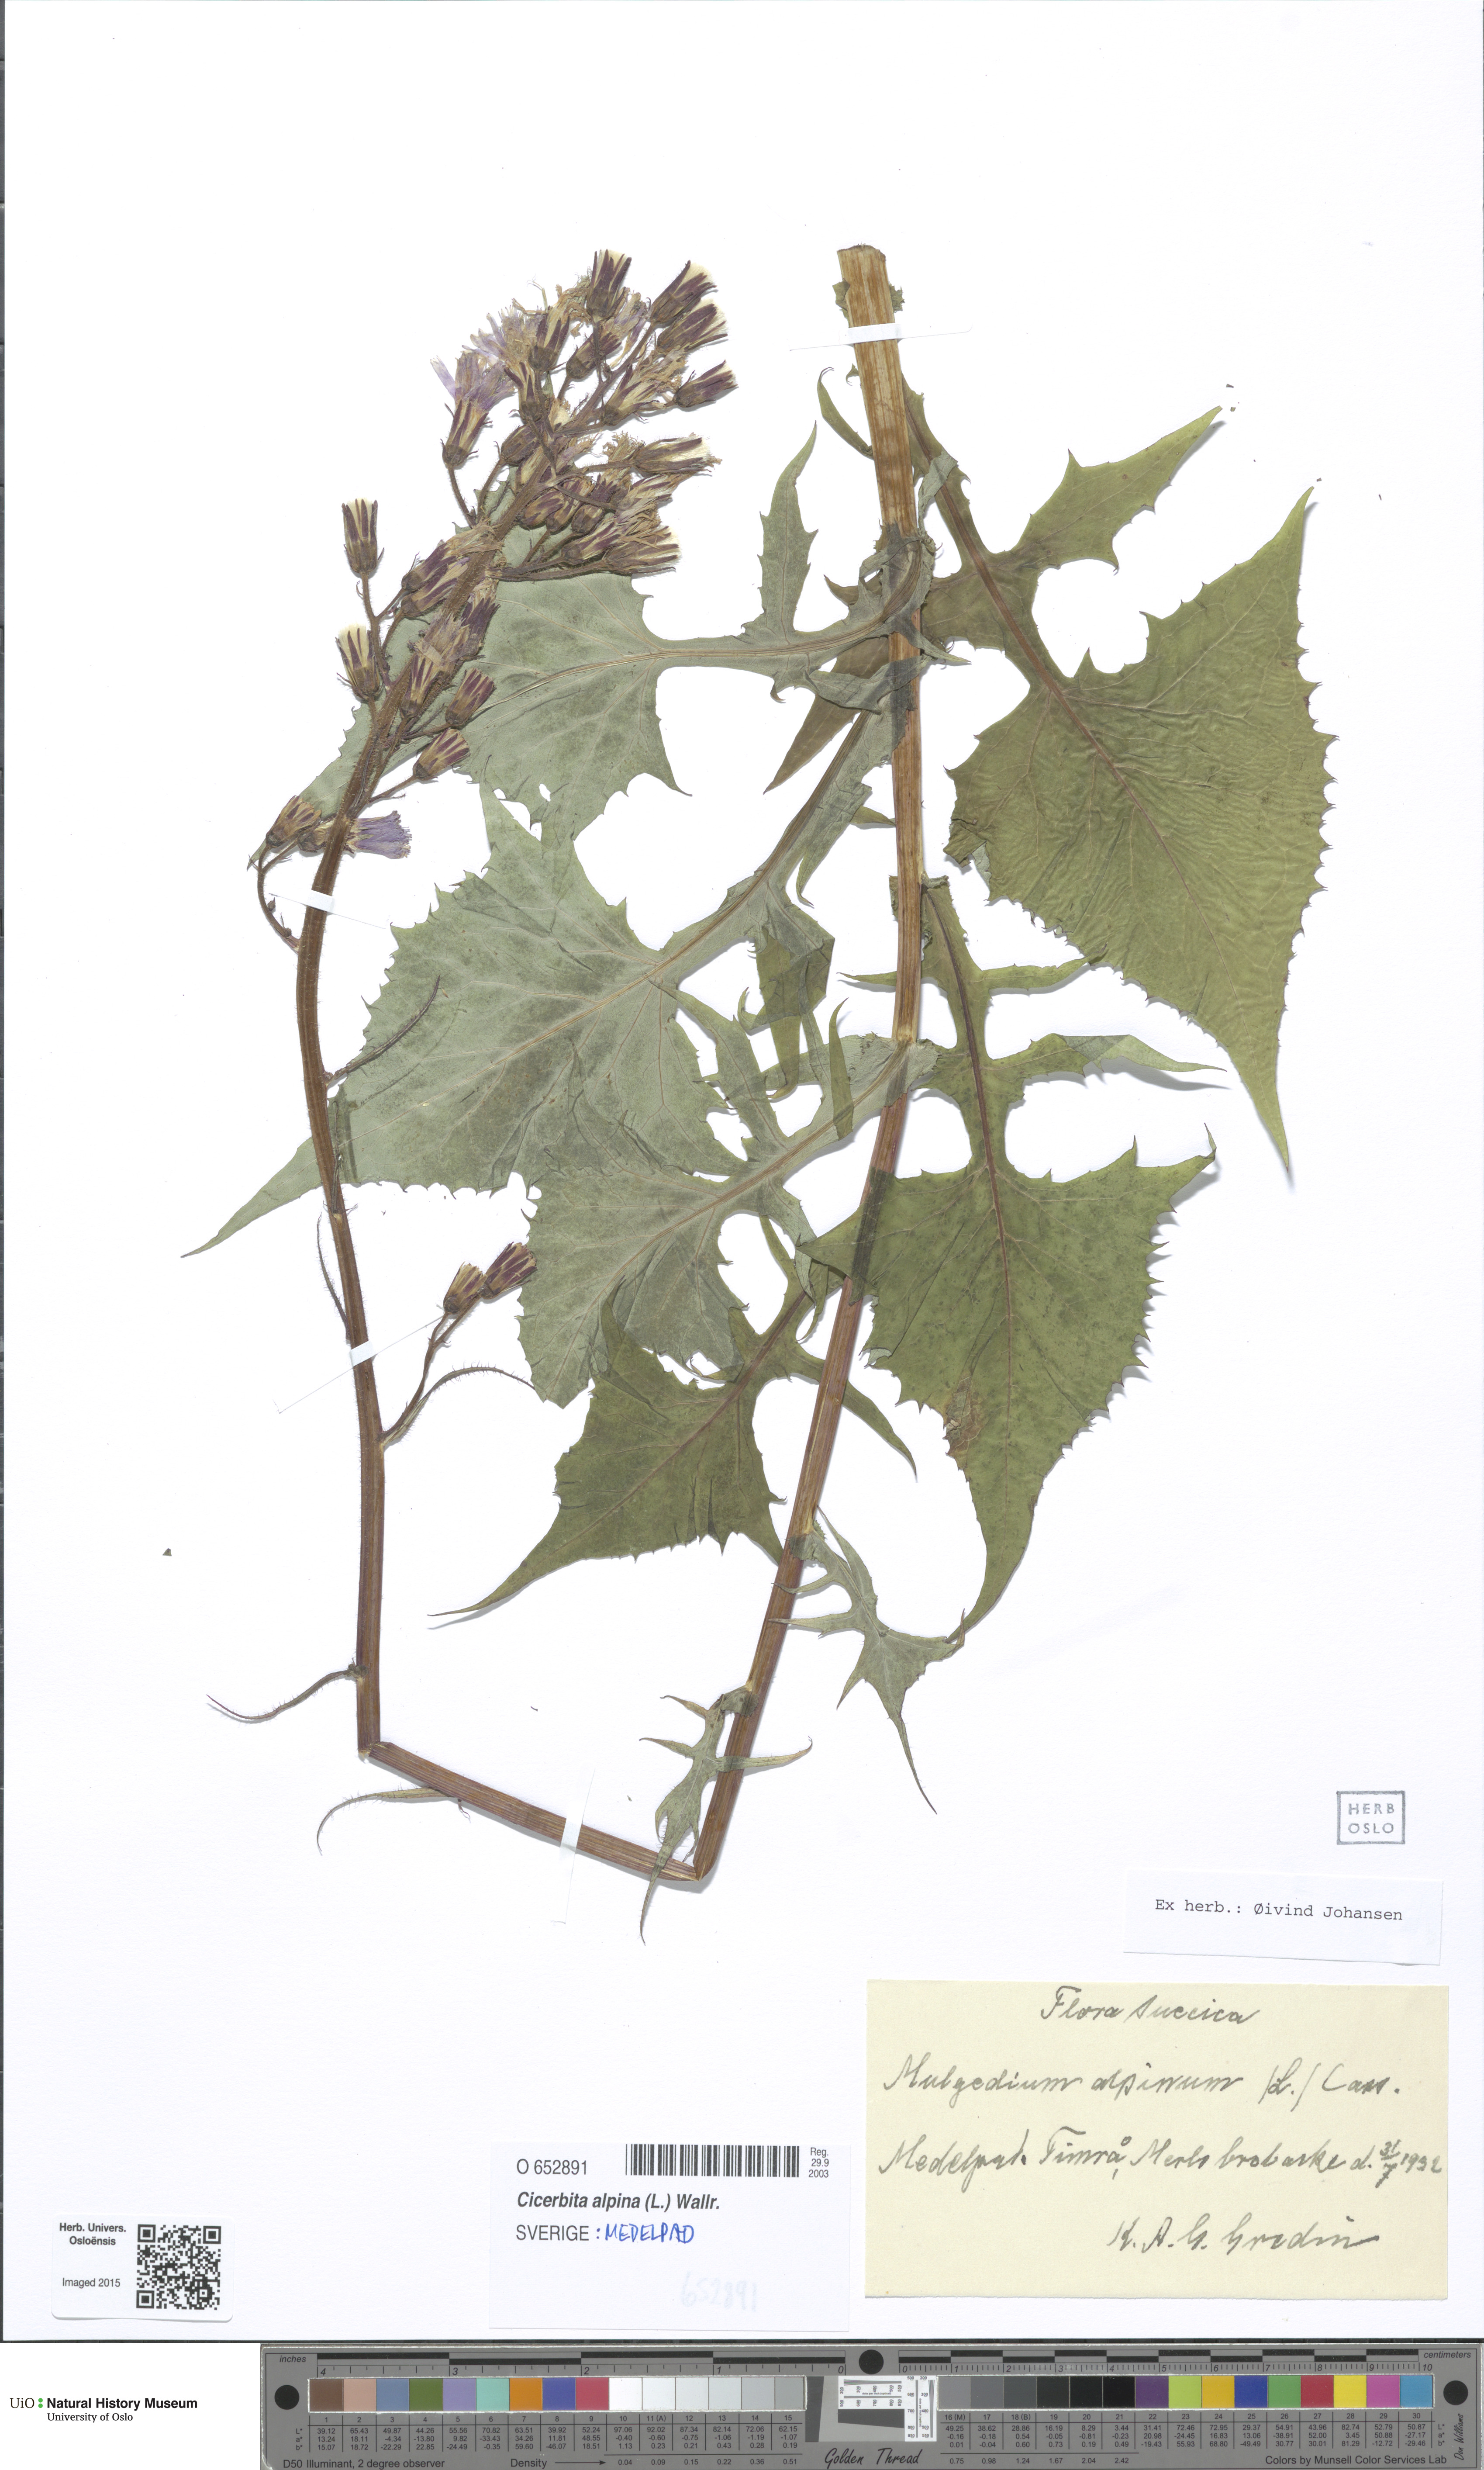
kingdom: Plantae
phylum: Tracheophyta
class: Magnoliopsida
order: Asterales
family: Asteraceae
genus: Cicerbita
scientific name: Cicerbita alpina
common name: Alpine blue-sow-thistle
